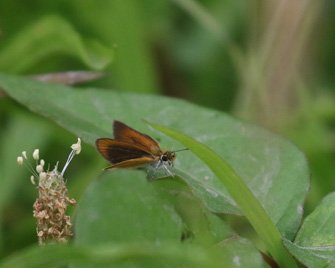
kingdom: Animalia
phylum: Arthropoda
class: Insecta
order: Lepidoptera
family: Hesperiidae
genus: Ancyloxypha
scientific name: Ancyloxypha numitor
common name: Least Skipper
